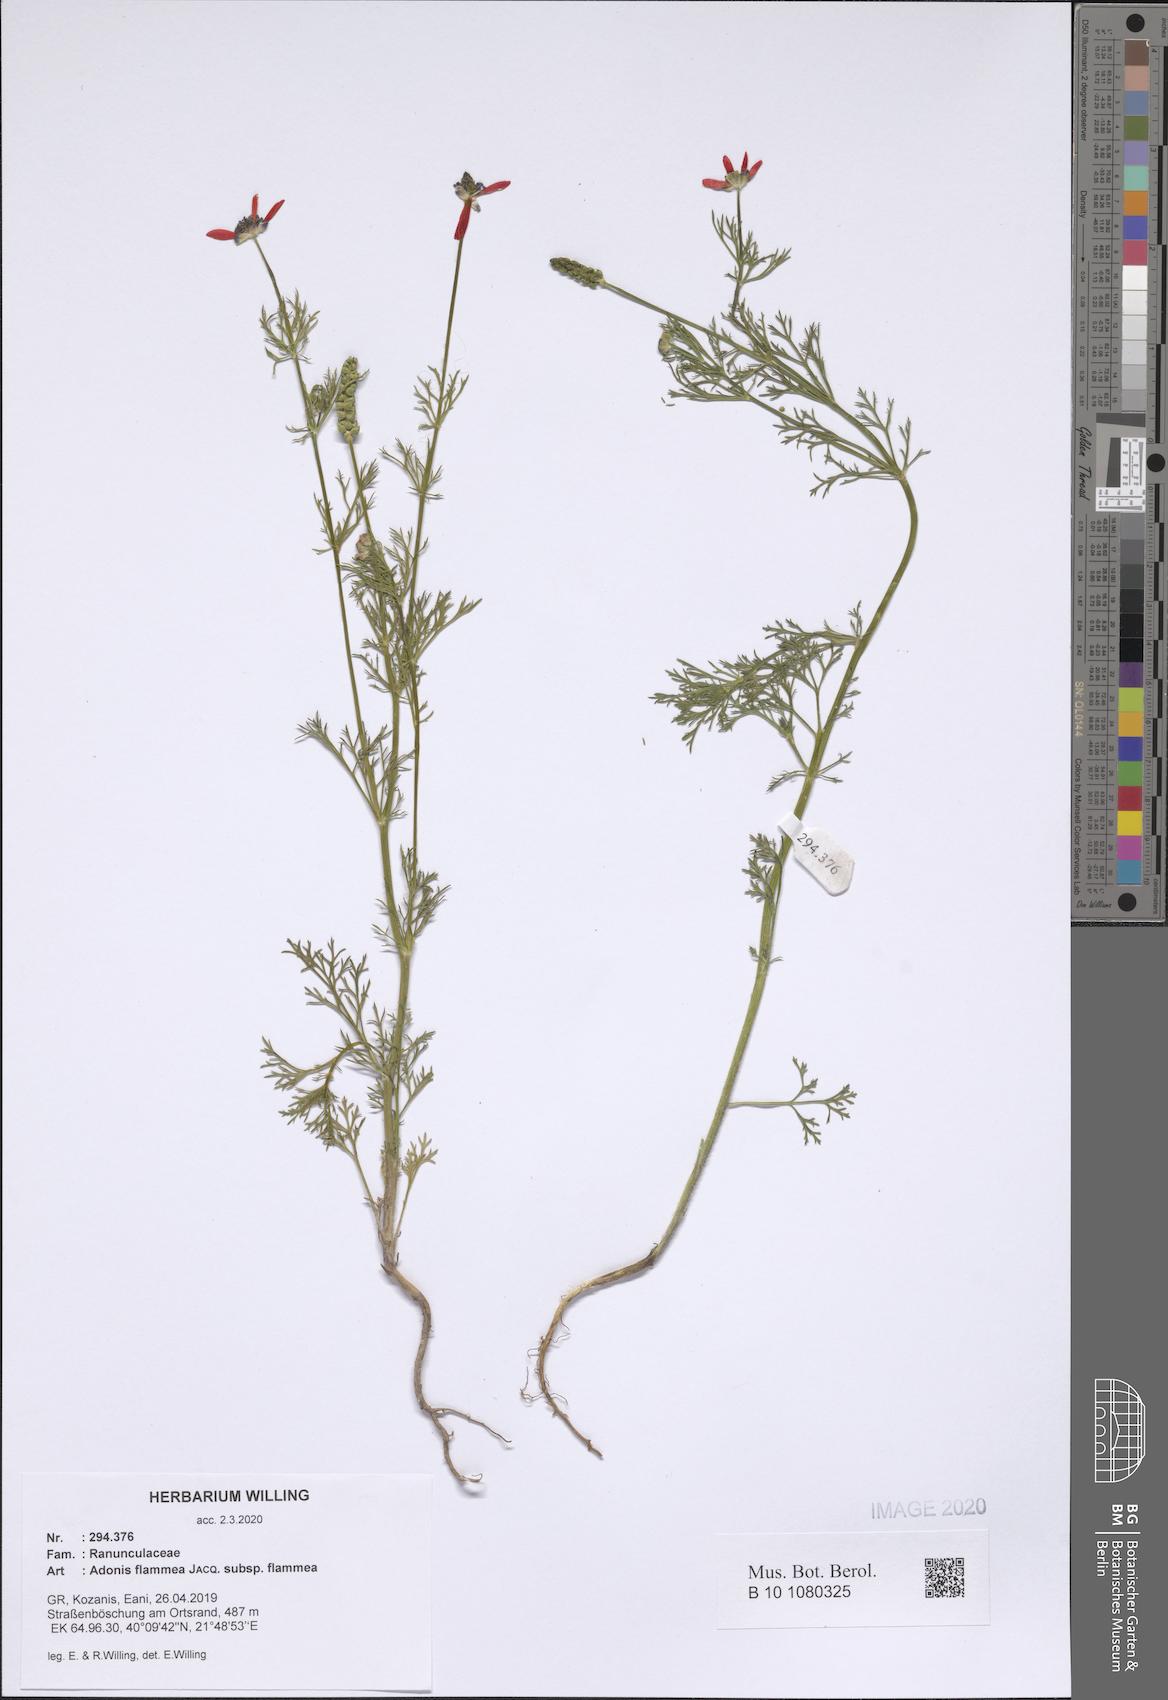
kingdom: Plantae
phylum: Tracheophyta
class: Magnoliopsida
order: Ranunculales
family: Ranunculaceae
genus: Adonis
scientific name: Adonis flammea
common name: Large pheasant's-eye
